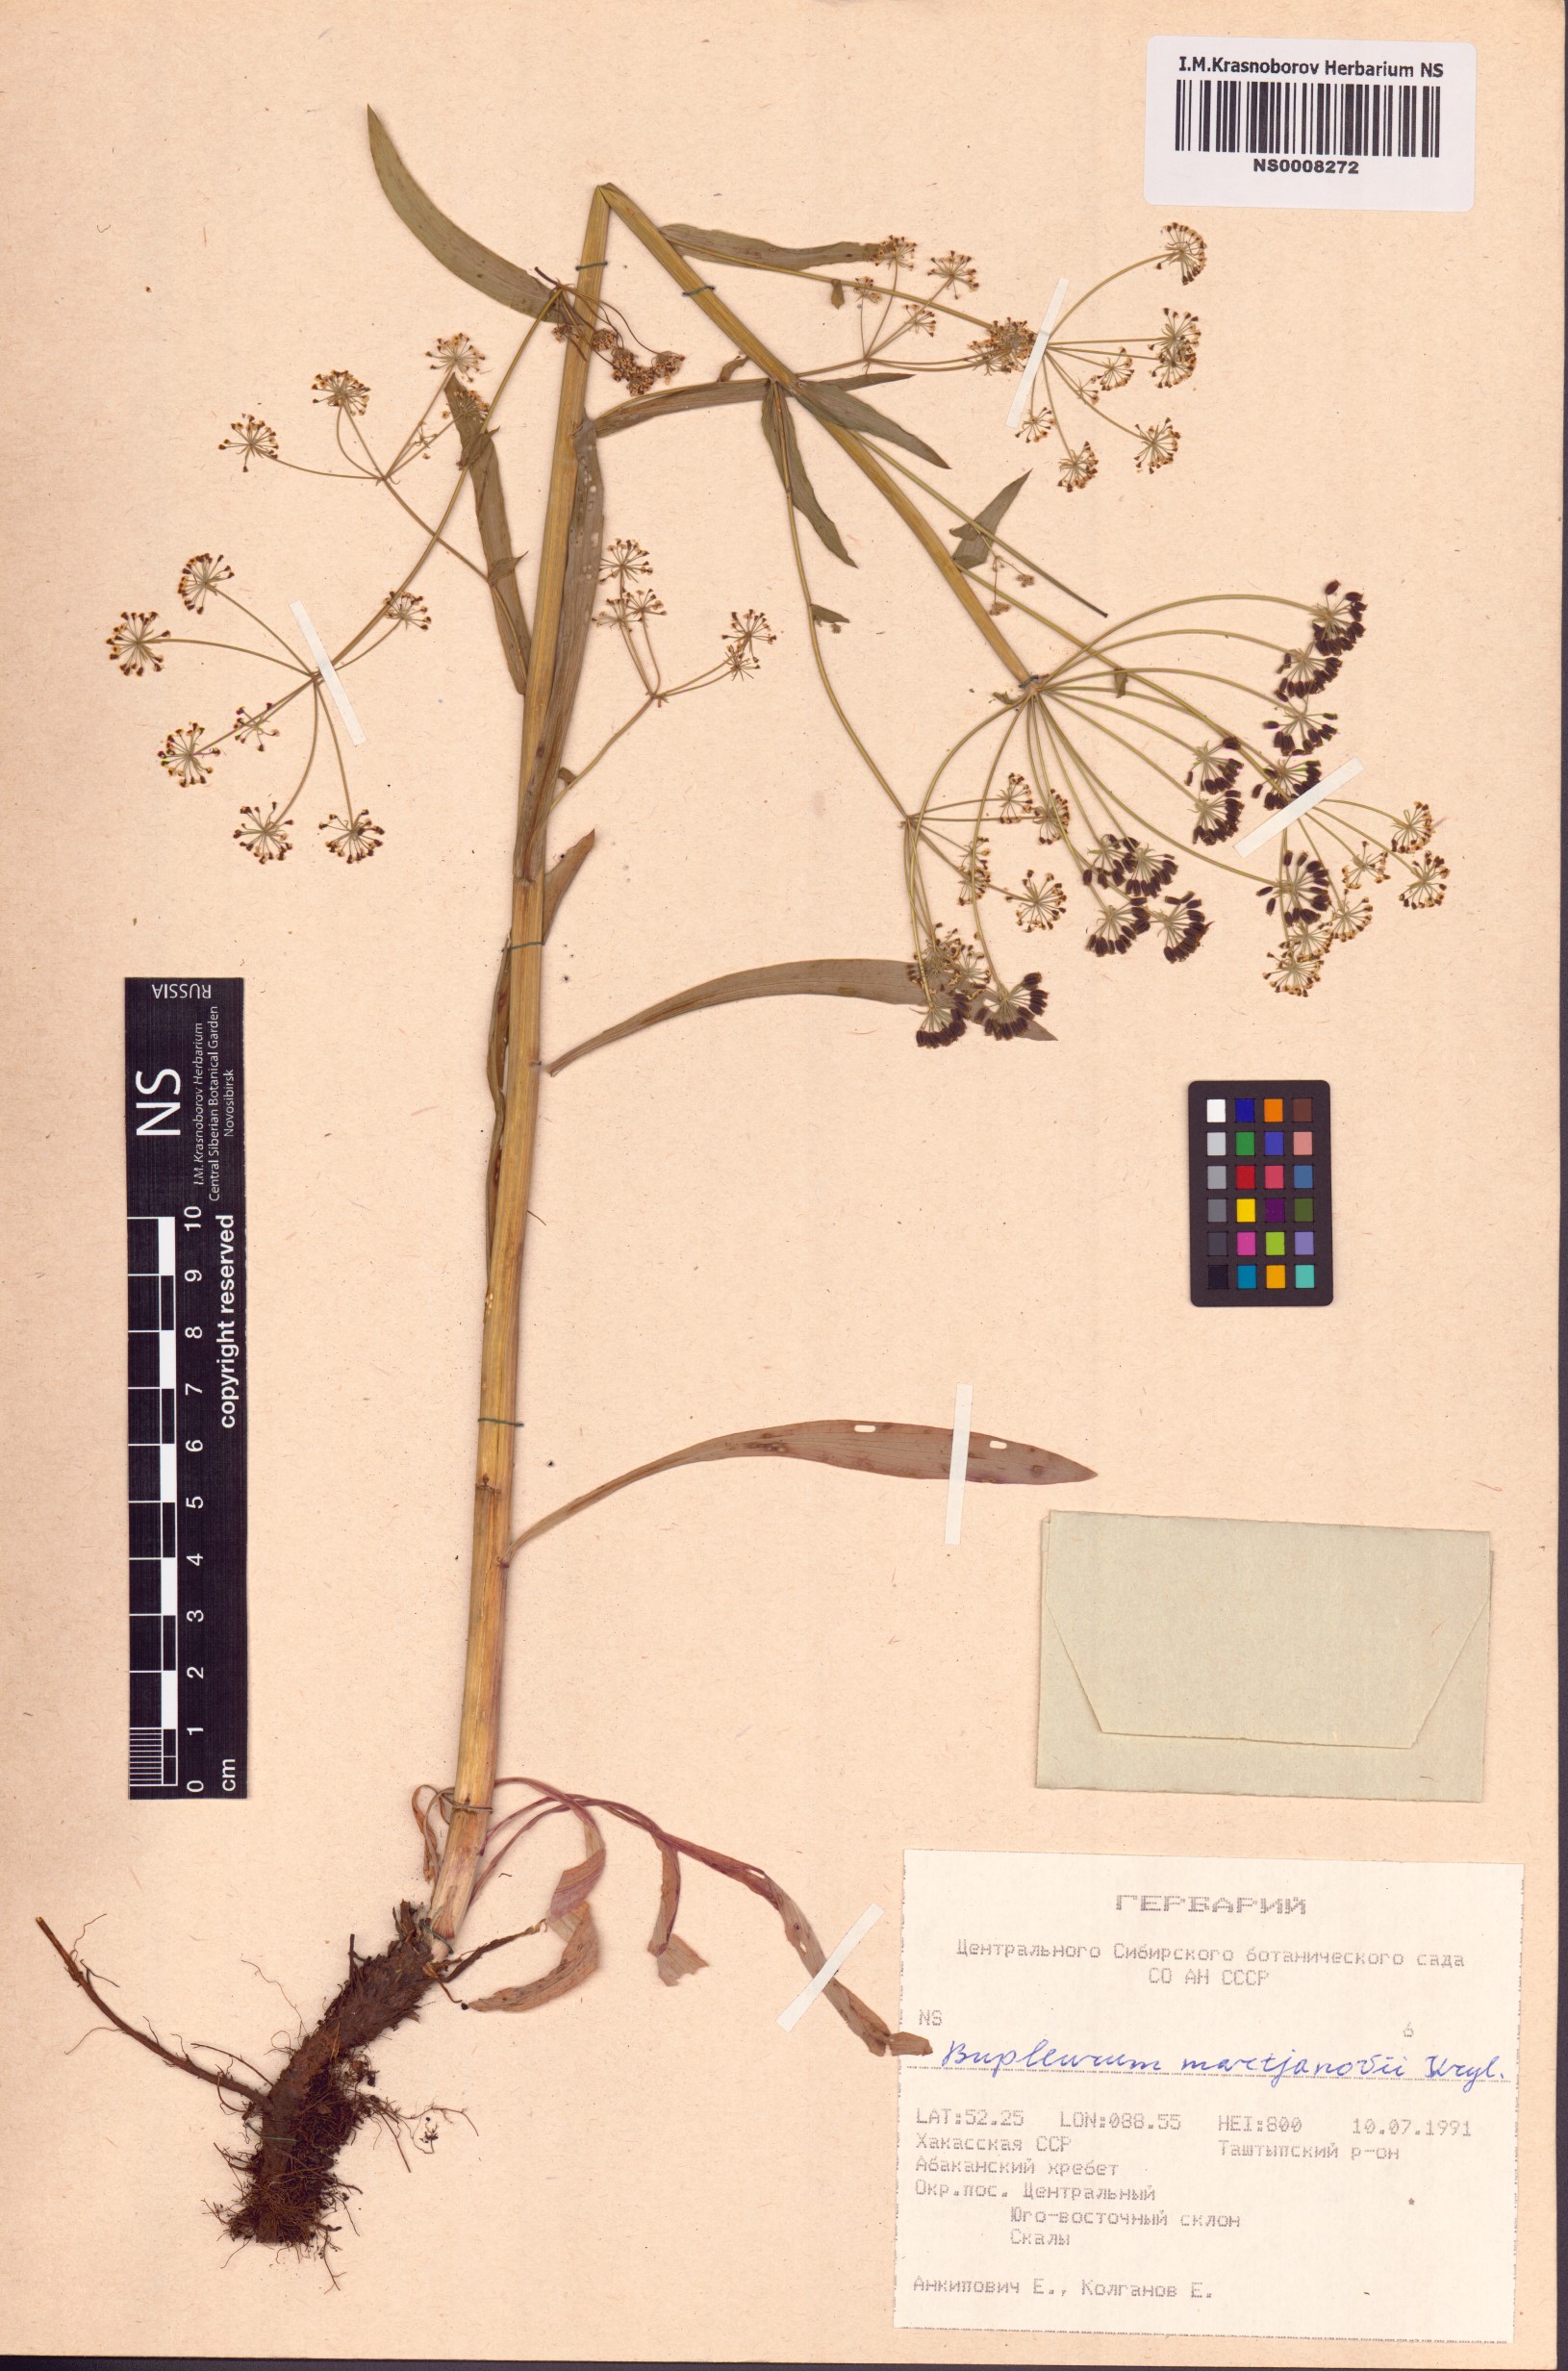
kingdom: Plantae
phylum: Tracheophyta
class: Magnoliopsida
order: Apiales
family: Apiaceae
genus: Bupleurum
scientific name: Bupleurum martjanovii
